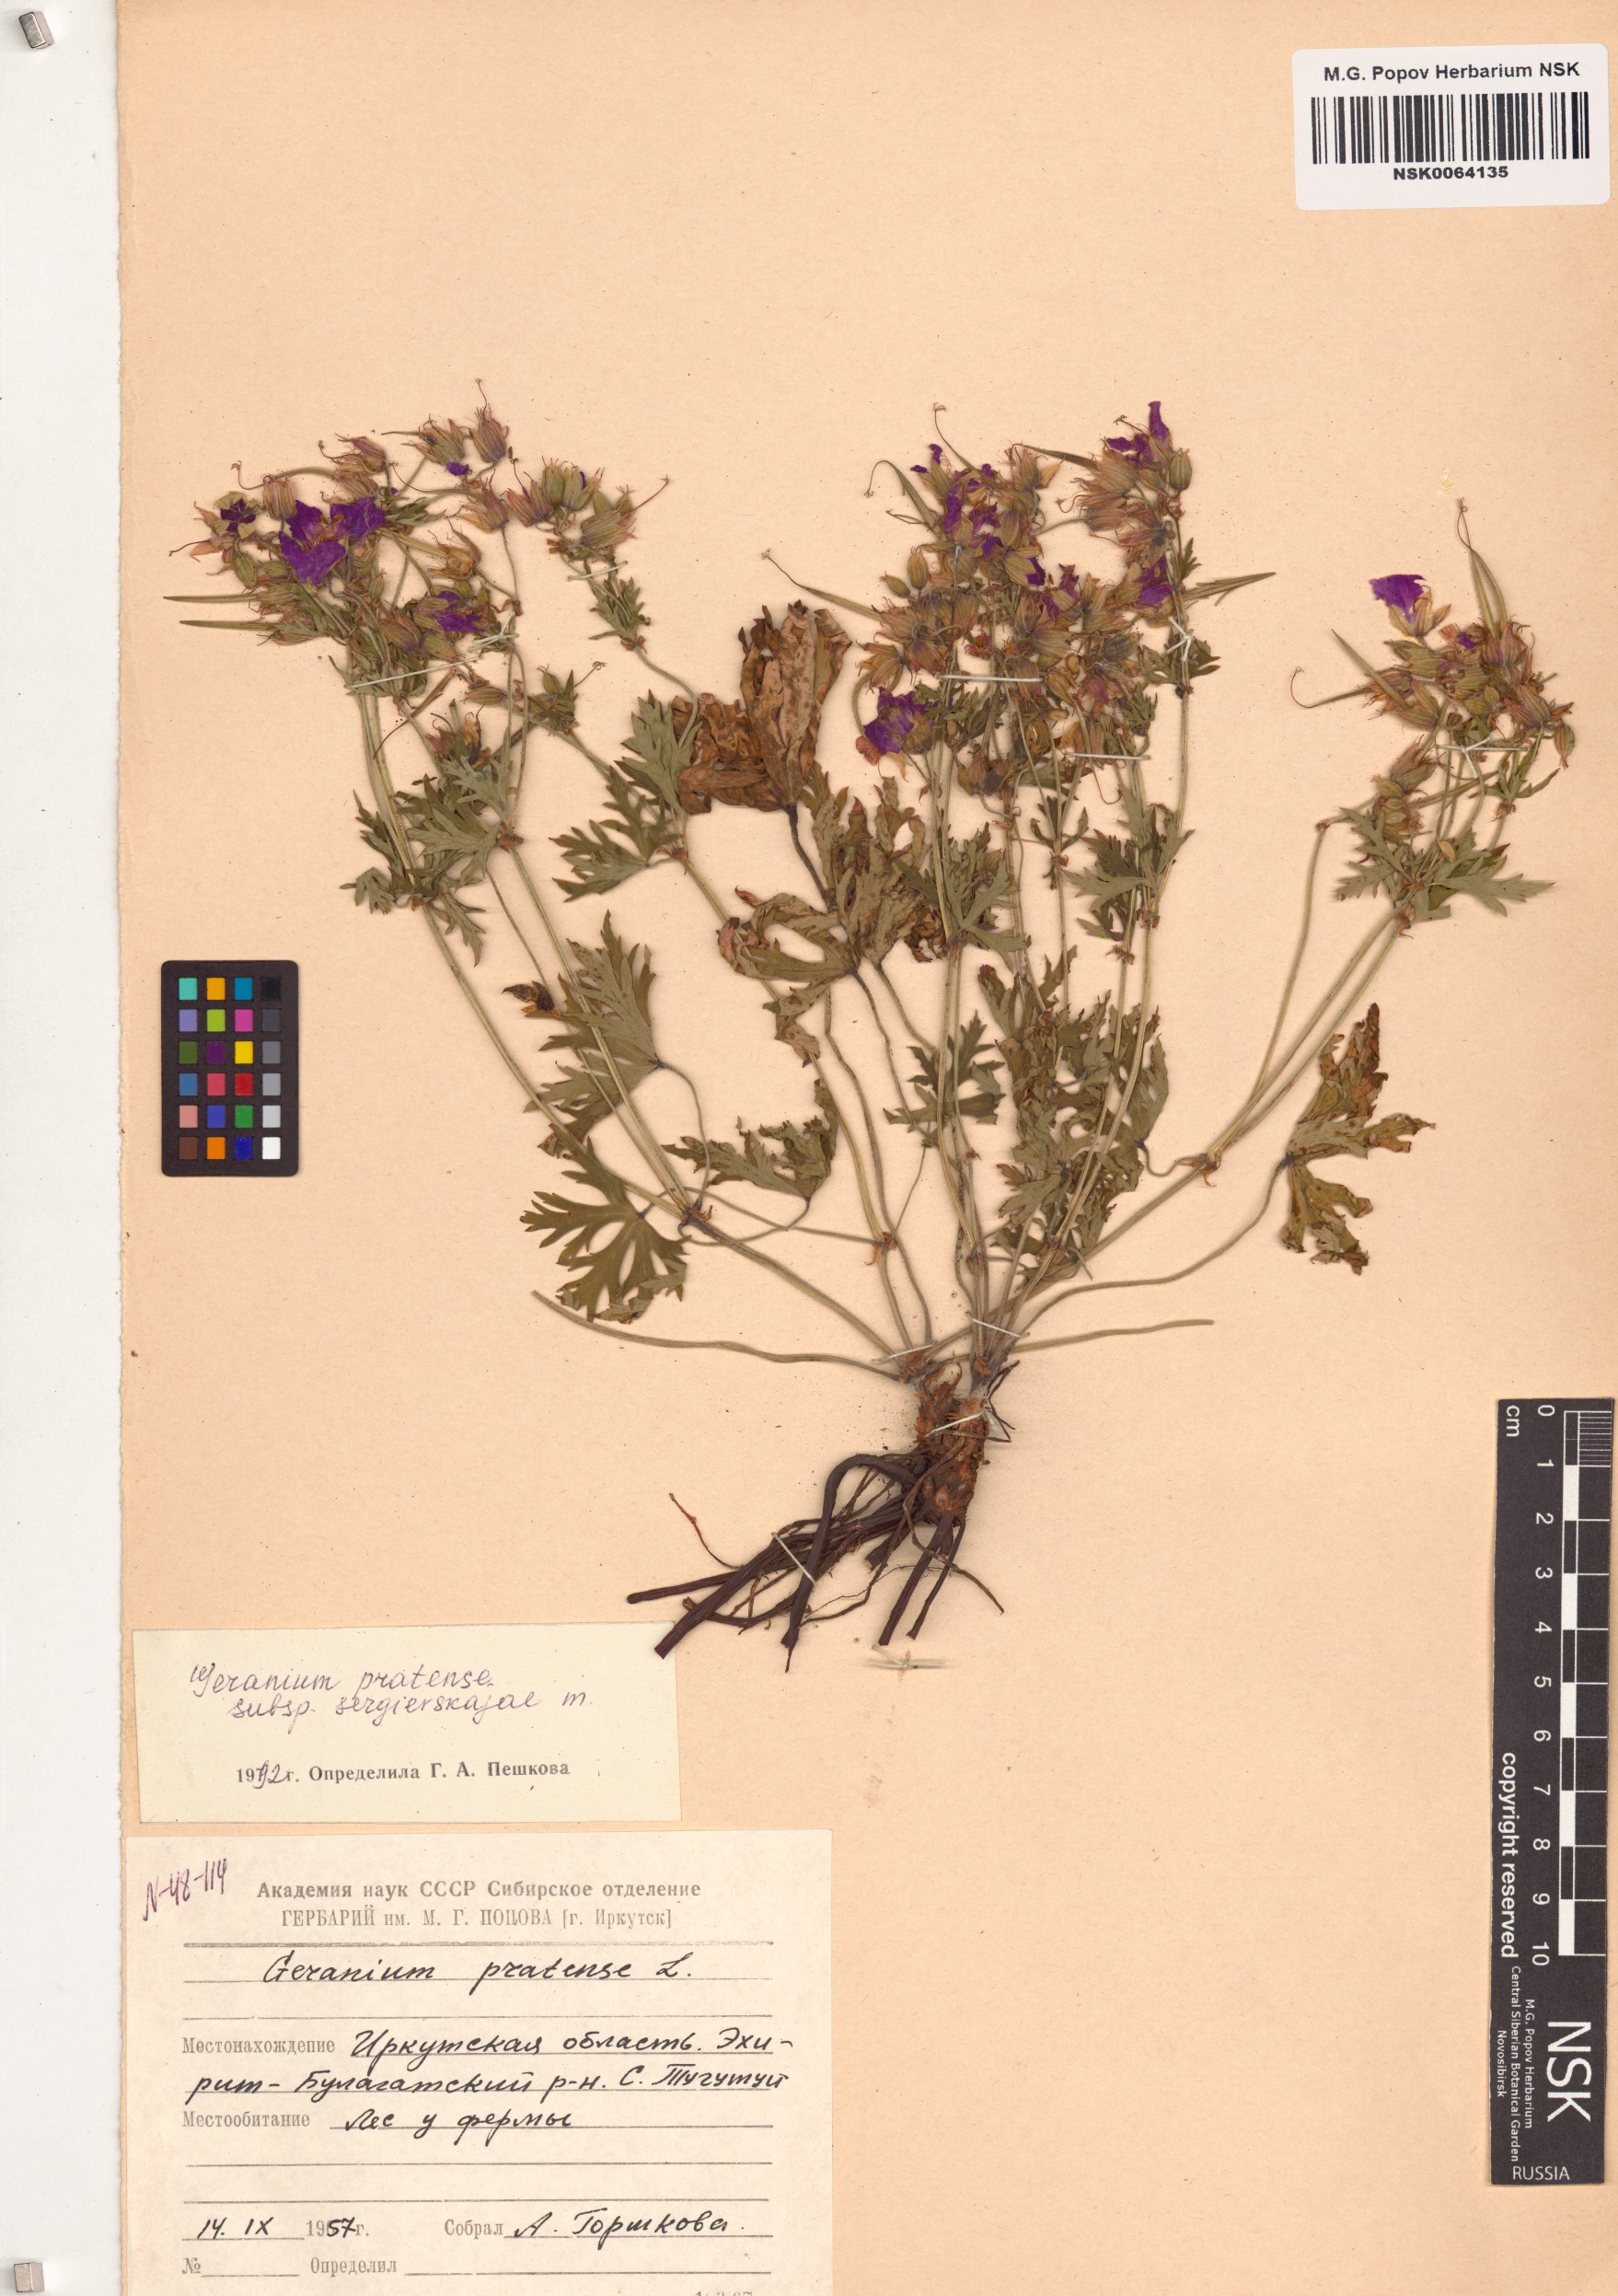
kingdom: Plantae
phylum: Tracheophyta
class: Magnoliopsida
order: Geraniales
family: Geraniaceae
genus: Geranium
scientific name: Geranium pratense
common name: Meadow crane's-bill
